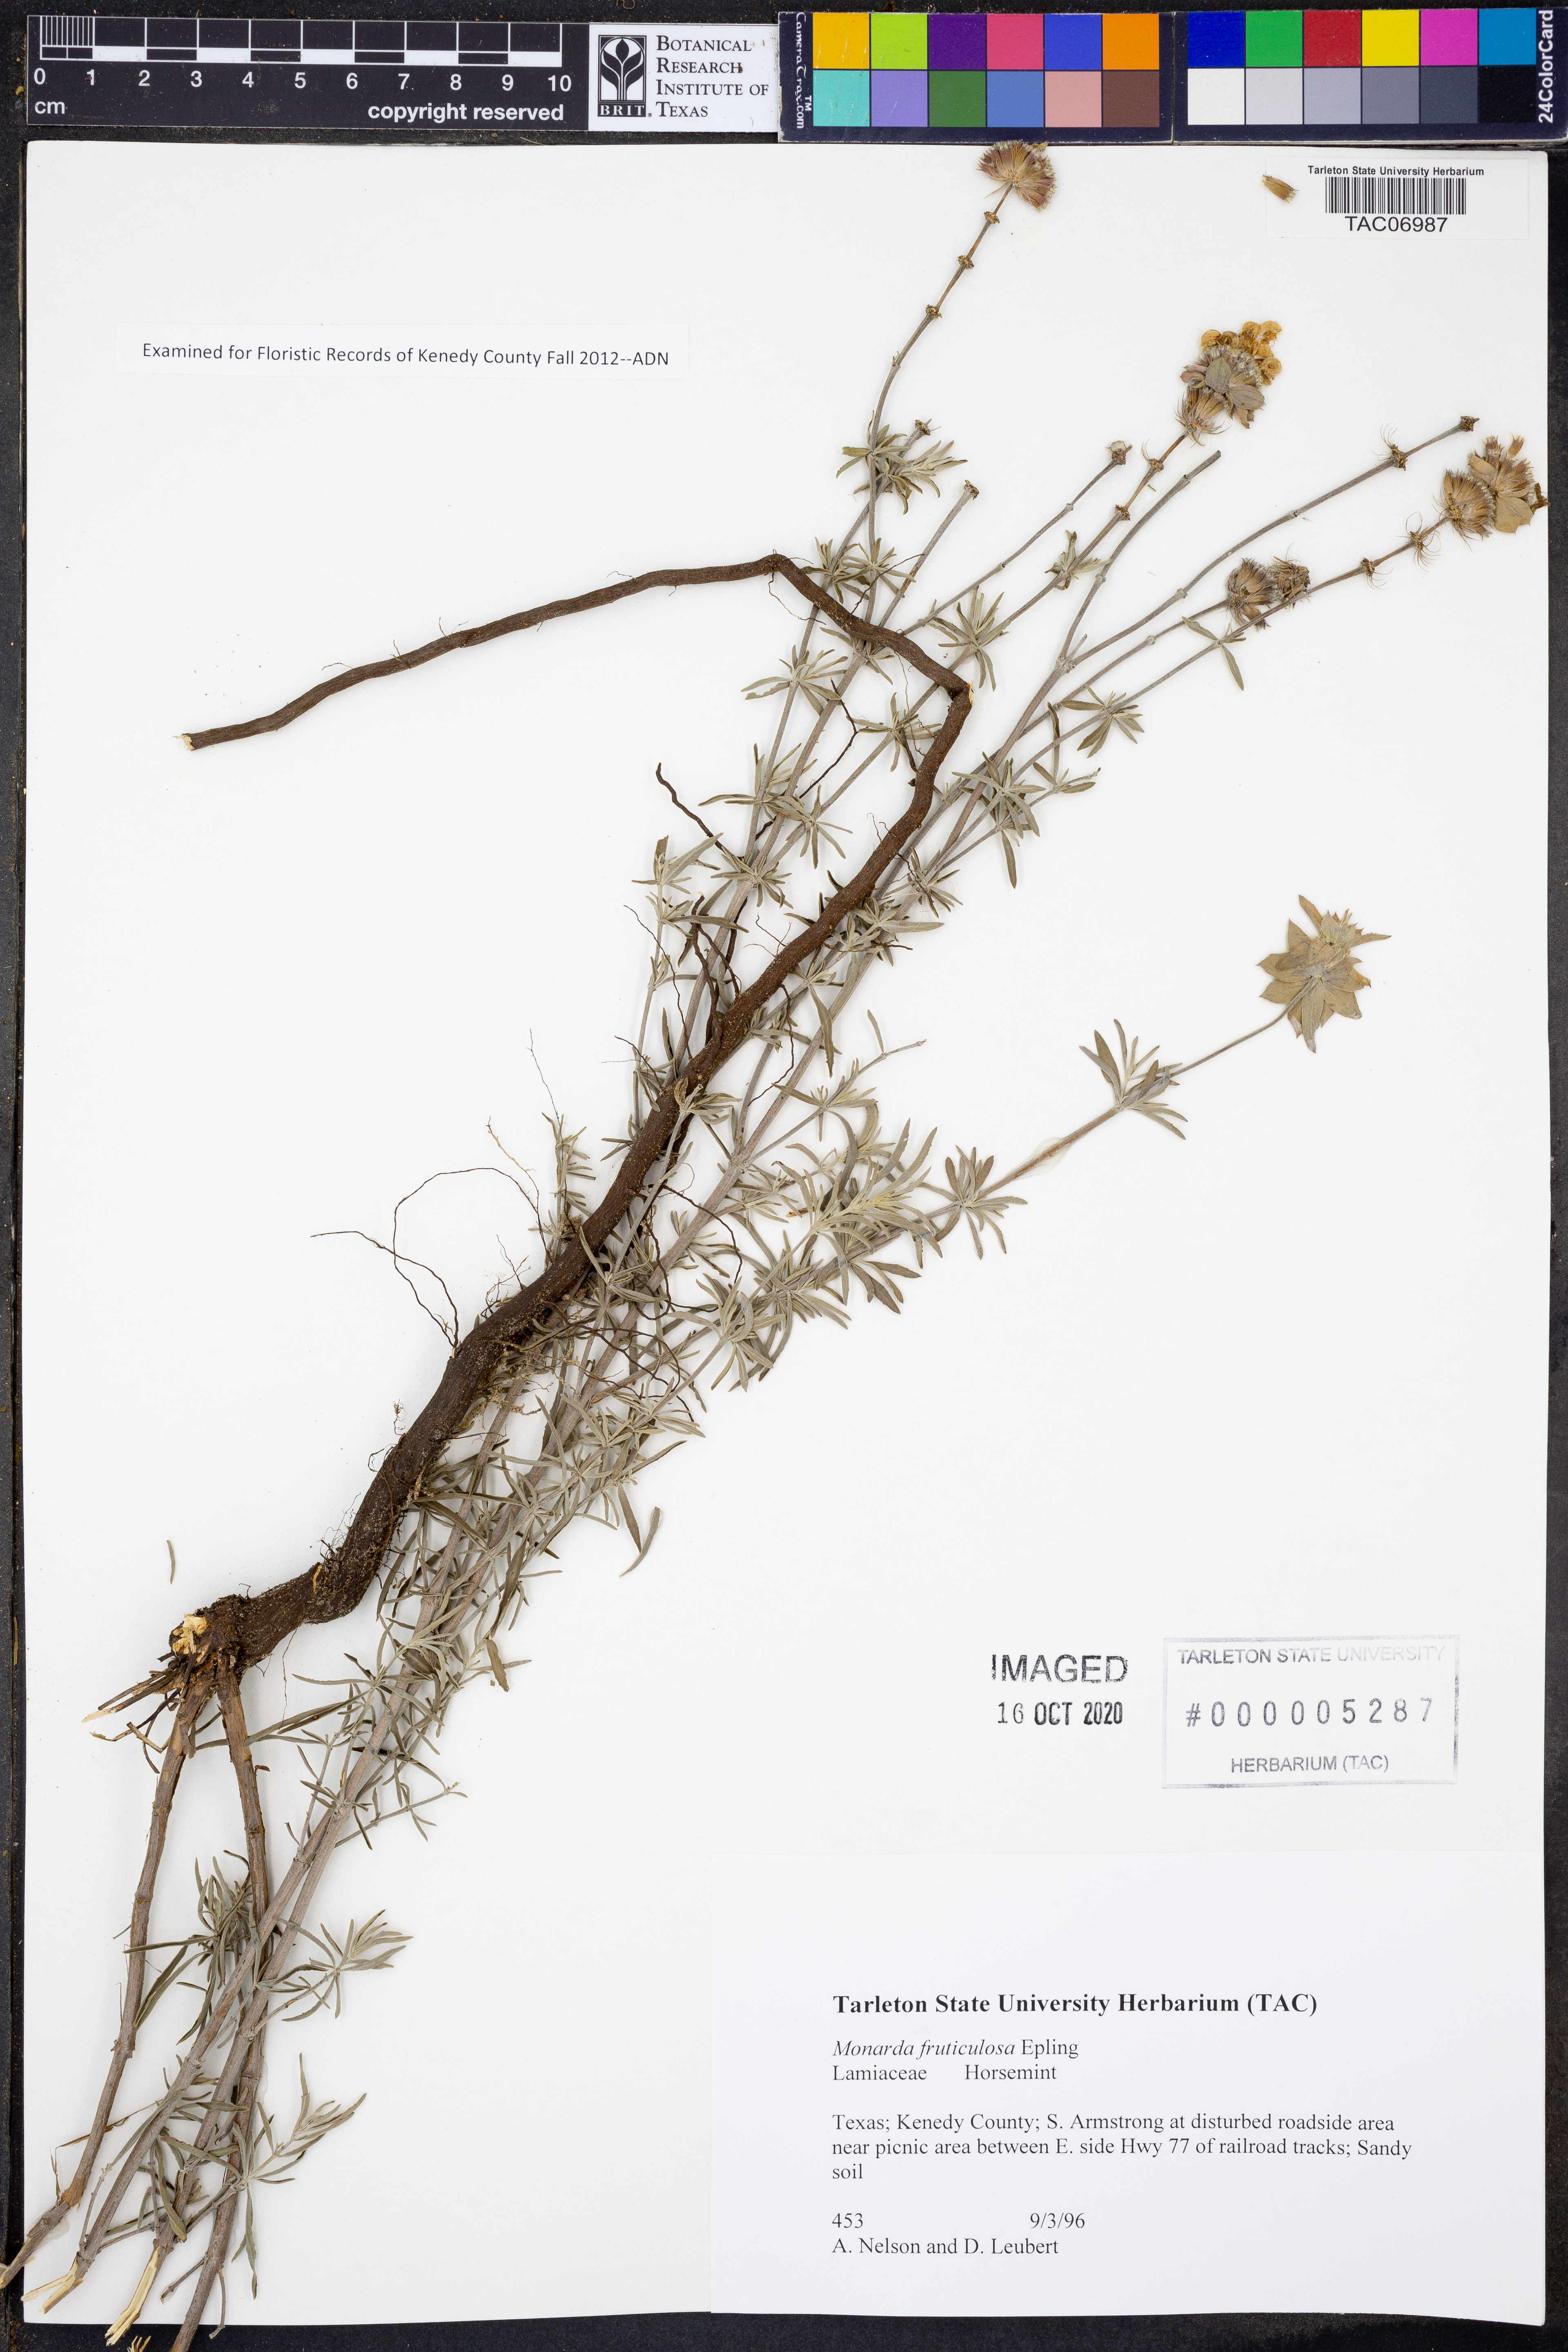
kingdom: Plantae
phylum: Tracheophyta
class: Magnoliopsida
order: Lamiales
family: Lamiaceae
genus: Monarda
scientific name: Monarda fruticulosa
